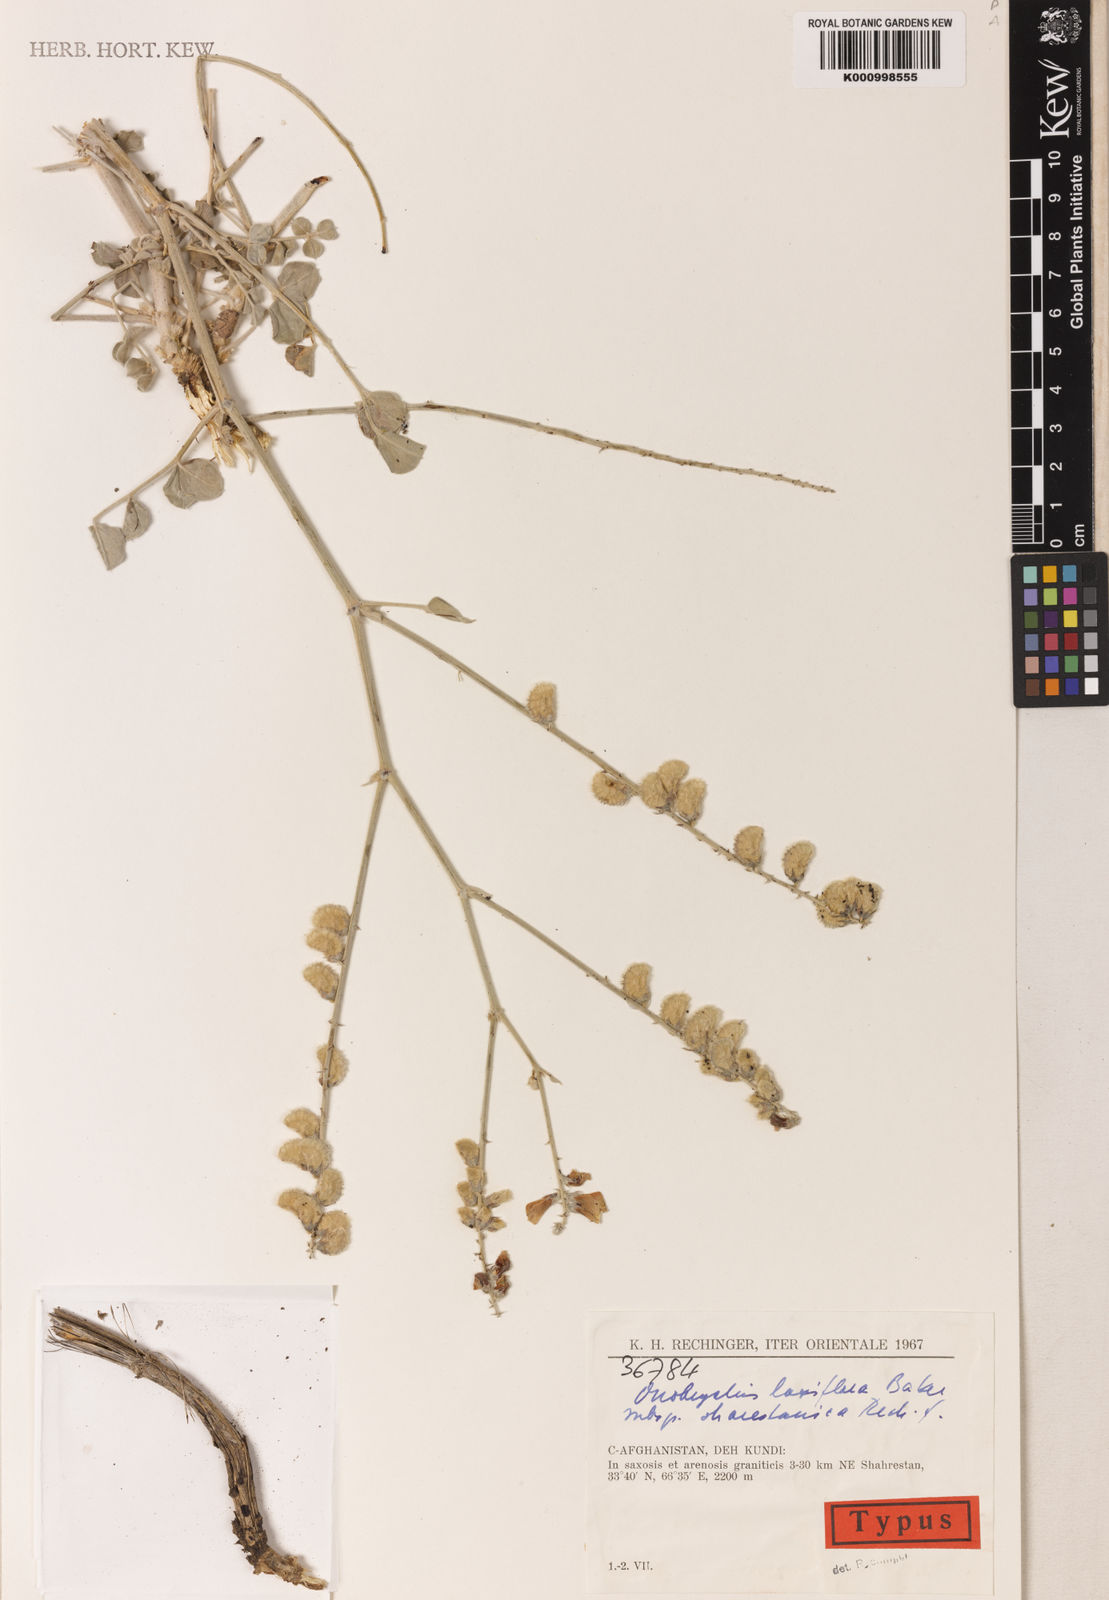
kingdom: Plantae
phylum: Tracheophyta
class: Magnoliopsida
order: Fabales
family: Fabaceae
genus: Onobrychis
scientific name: Onobrychis schugnanica
